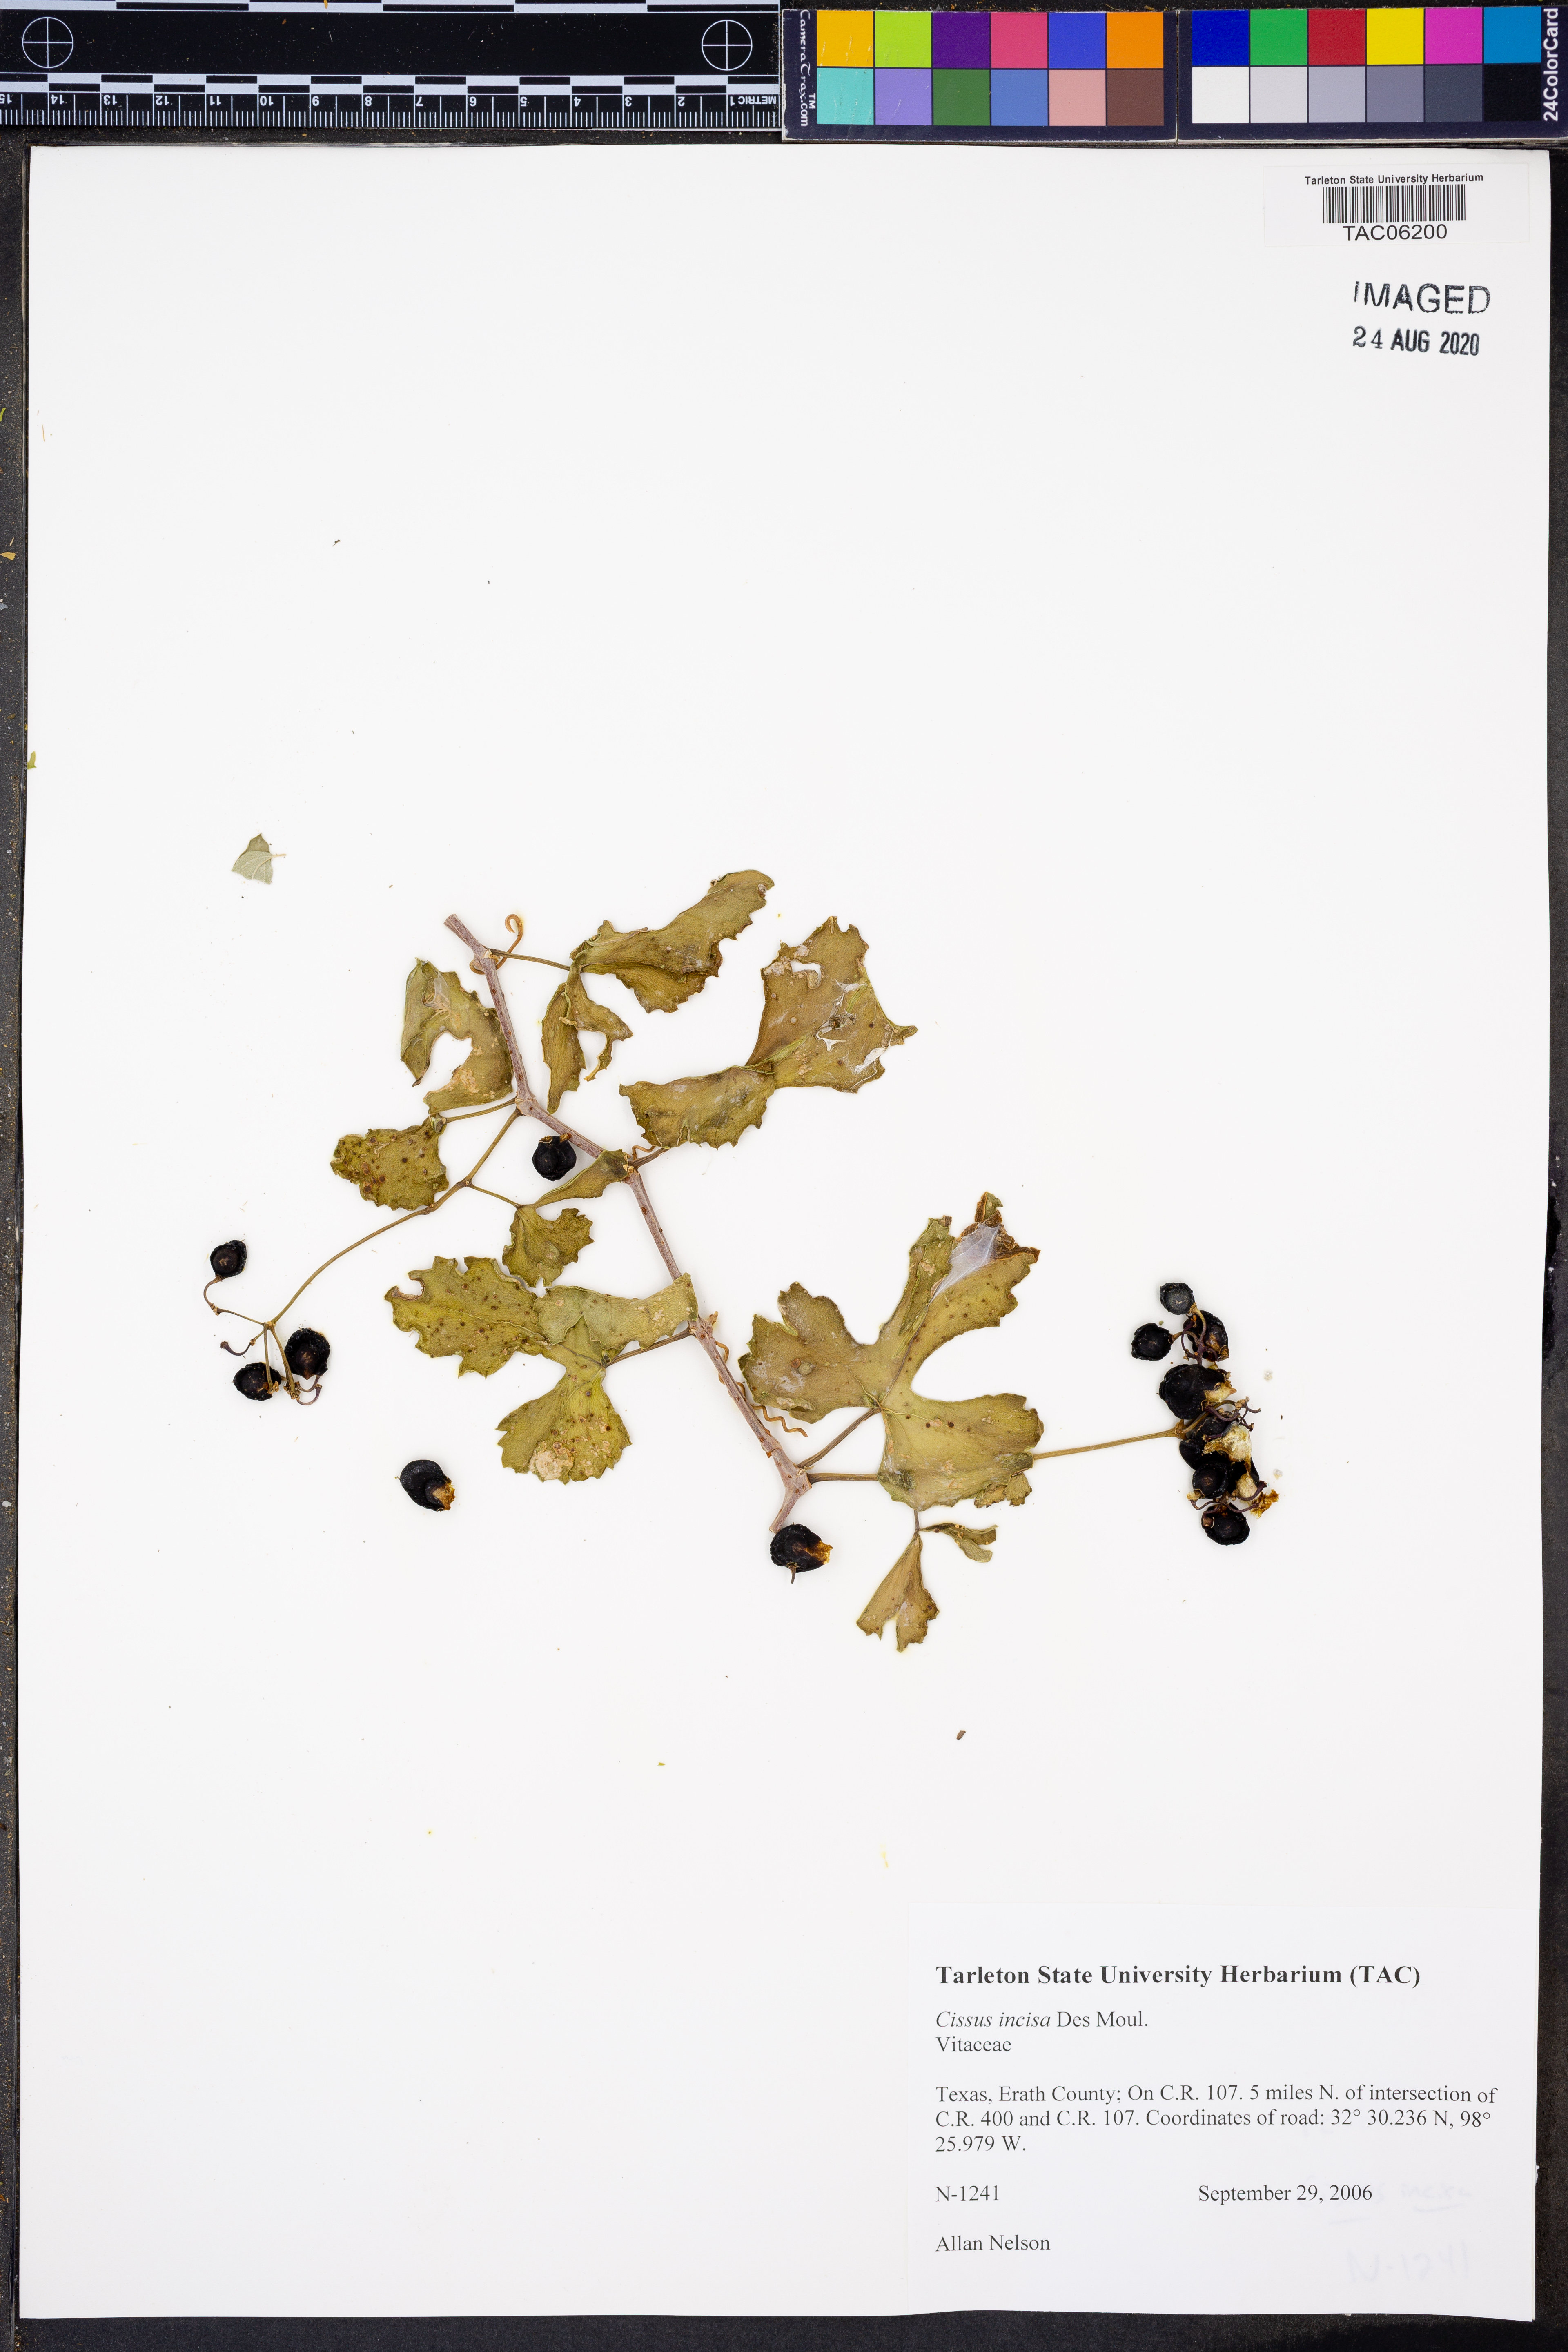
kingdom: Plantae
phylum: Tracheophyta
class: Magnoliopsida
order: Vitales
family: Vitaceae
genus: Cissus
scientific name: Cissus trifoliata
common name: Vine-sorrel
